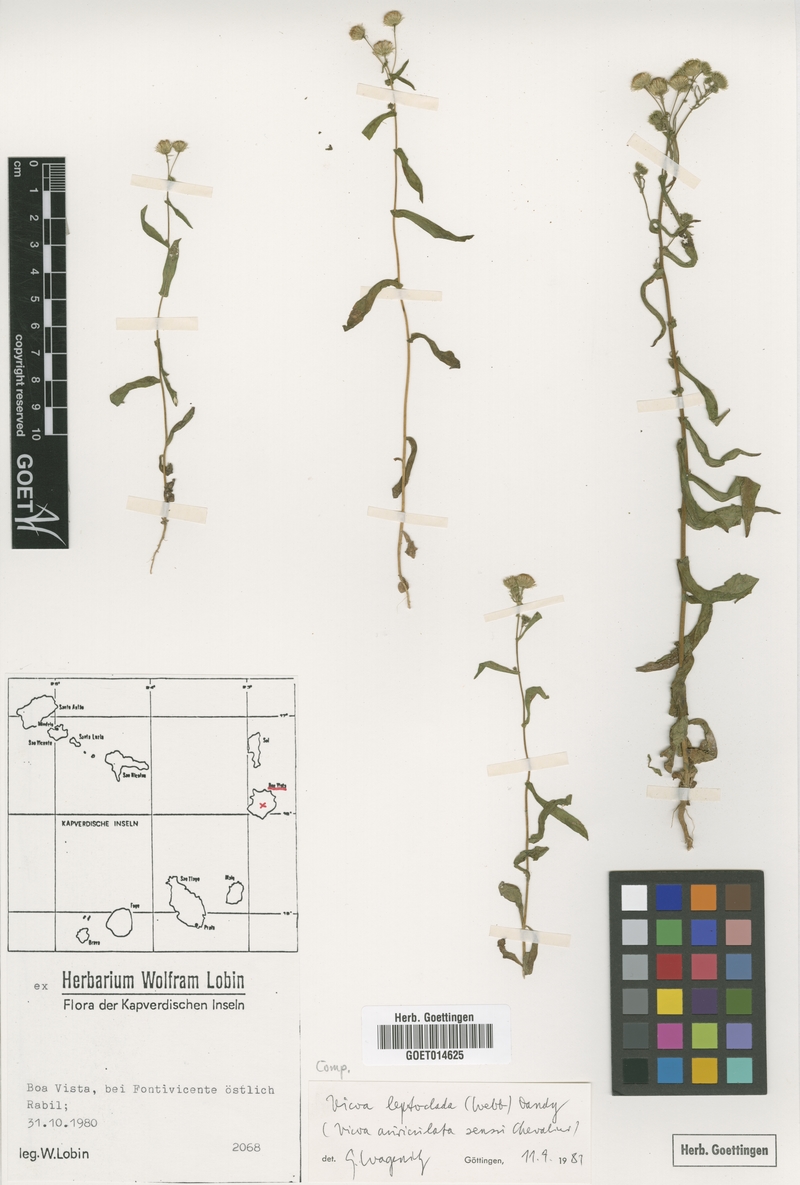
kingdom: Plantae
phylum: Tracheophyta
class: Magnoliopsida
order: Asterales
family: Asteraceae
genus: Vicoa
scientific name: Vicoa indica
